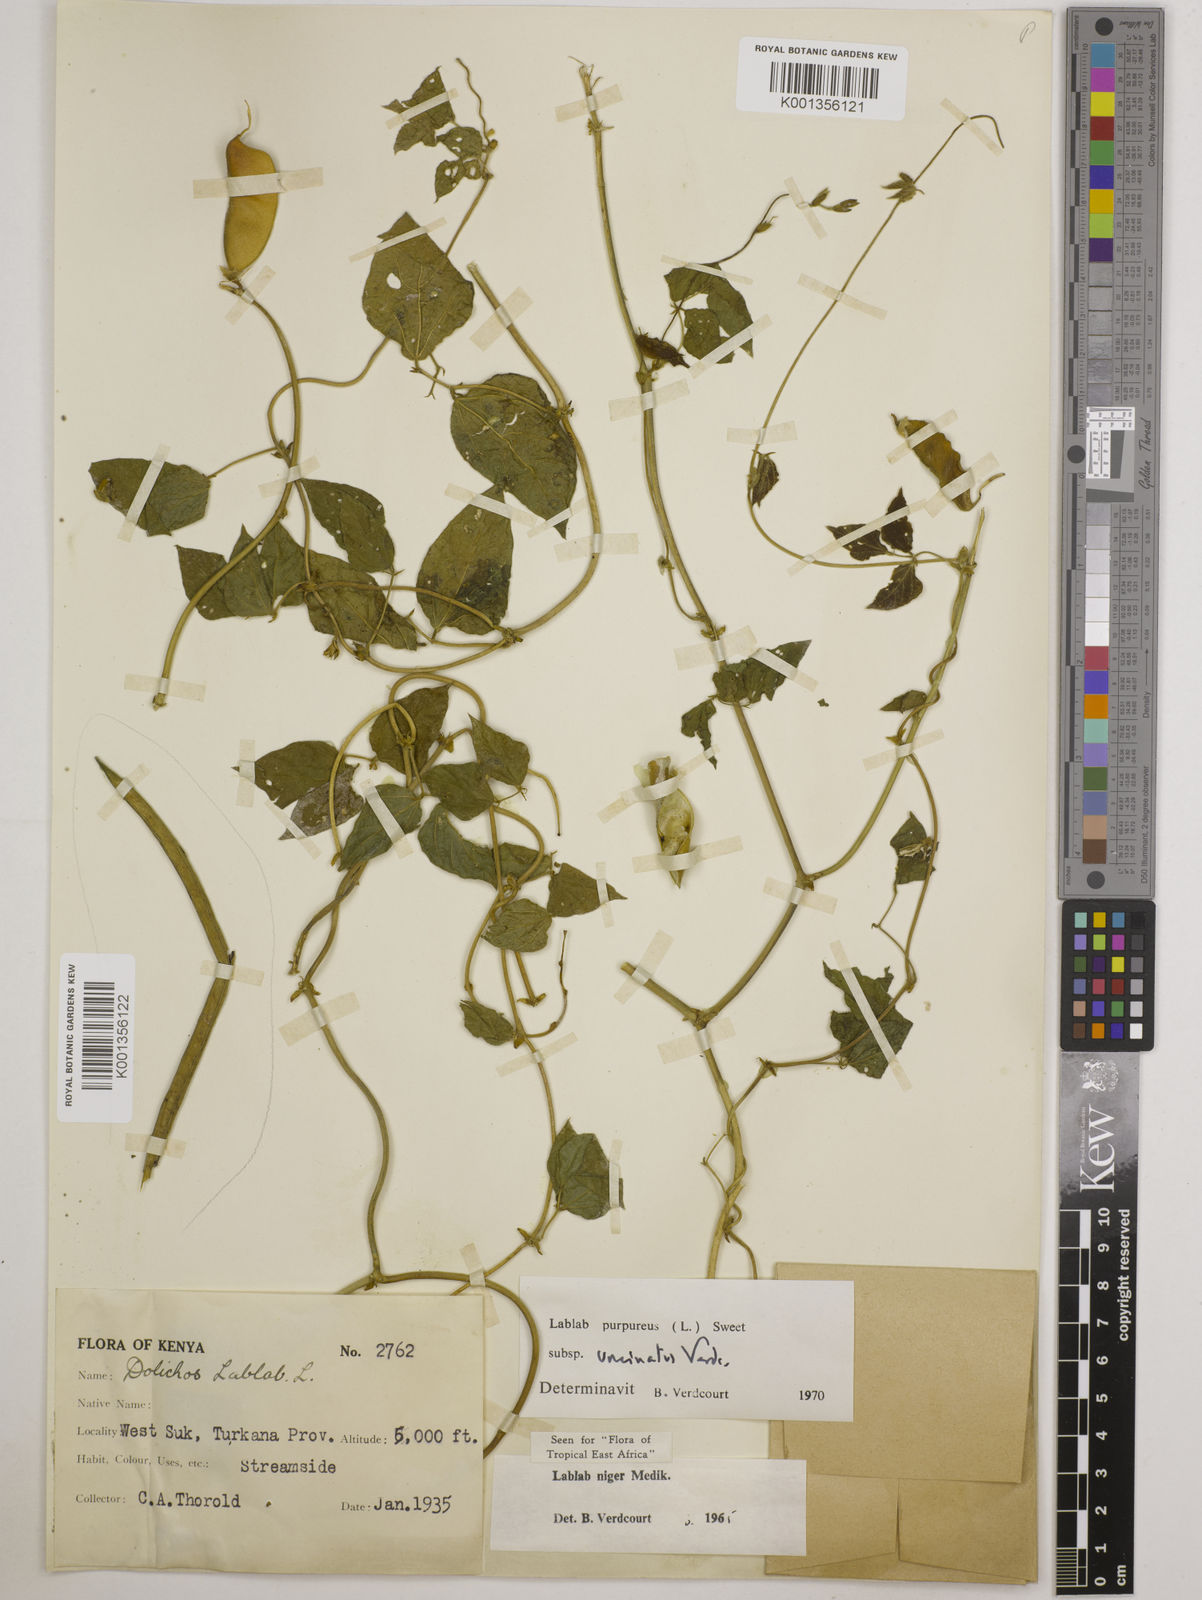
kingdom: Plantae
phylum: Tracheophyta
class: Magnoliopsida
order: Fabales
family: Fabaceae
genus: Lablab
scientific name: Lablab purpureus
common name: Lablab-bean
